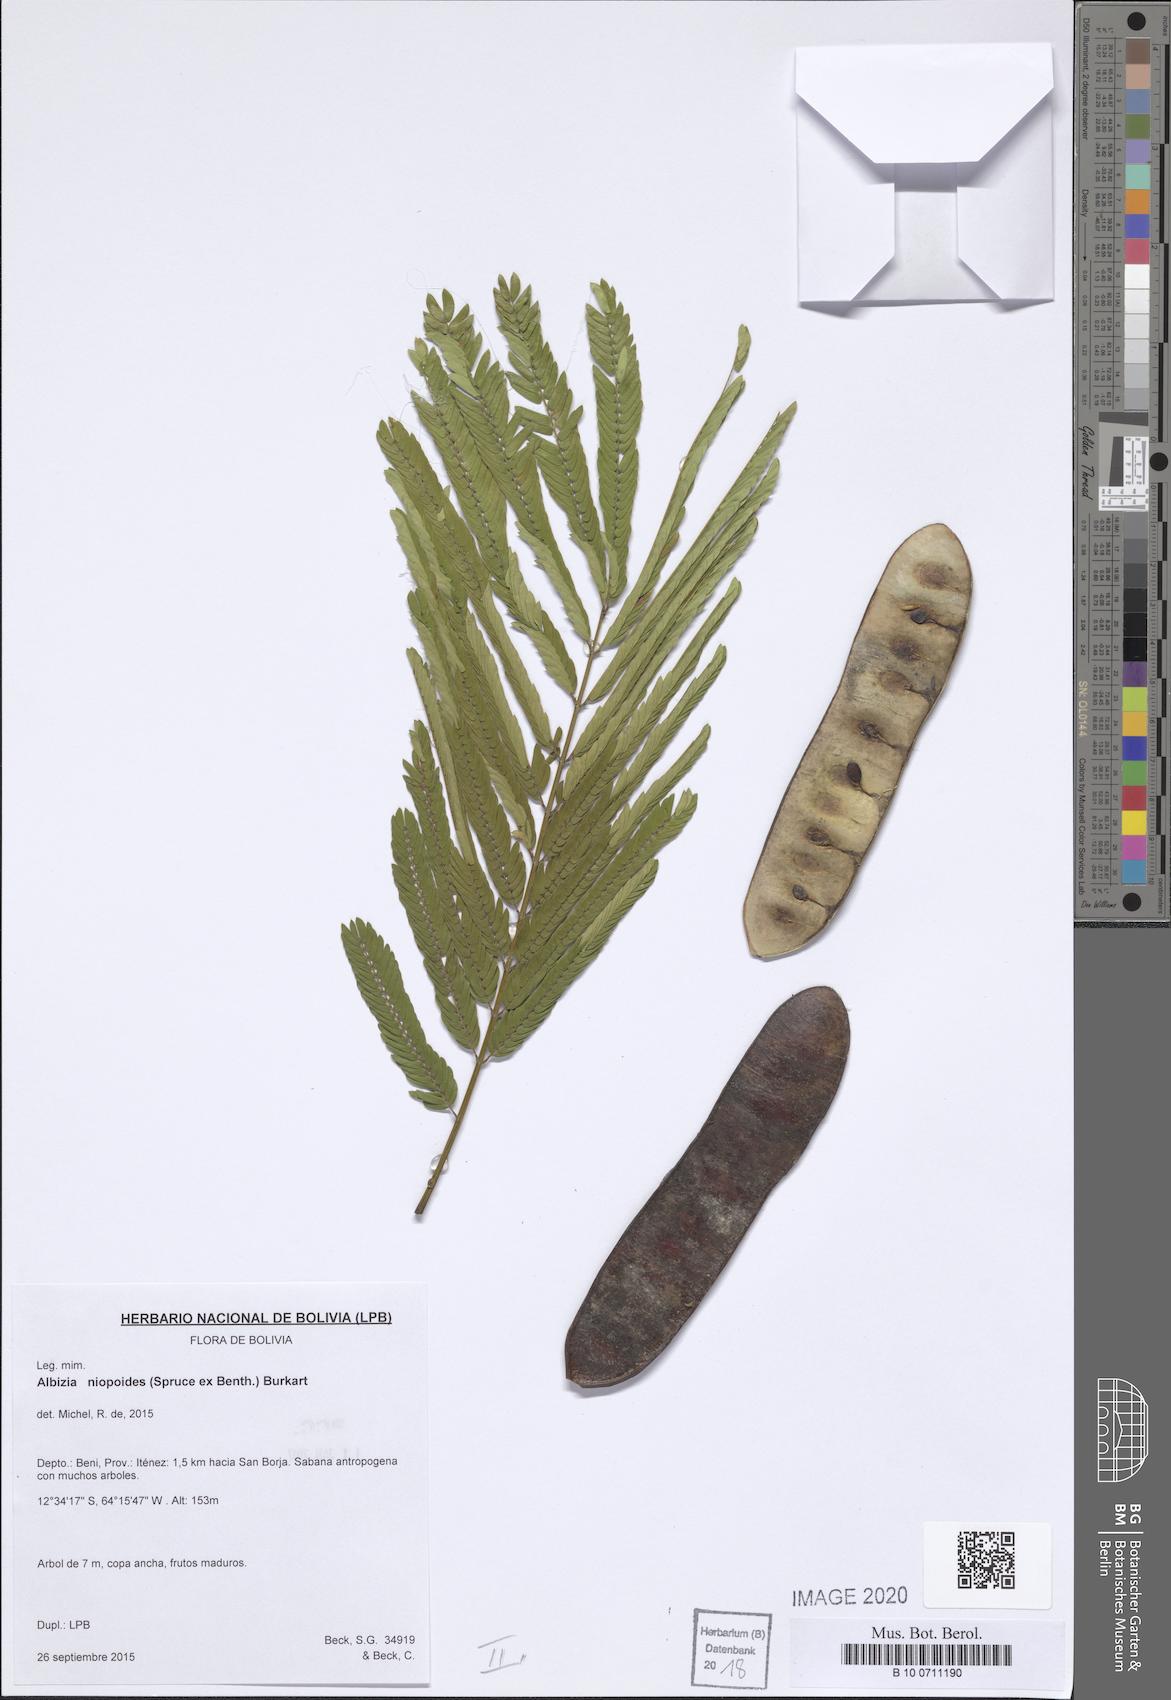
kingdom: Plantae
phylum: Tracheophyta
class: Magnoliopsida
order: Fabales
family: Fabaceae
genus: Albizia
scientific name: Albizia niopoides
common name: Silk tree
